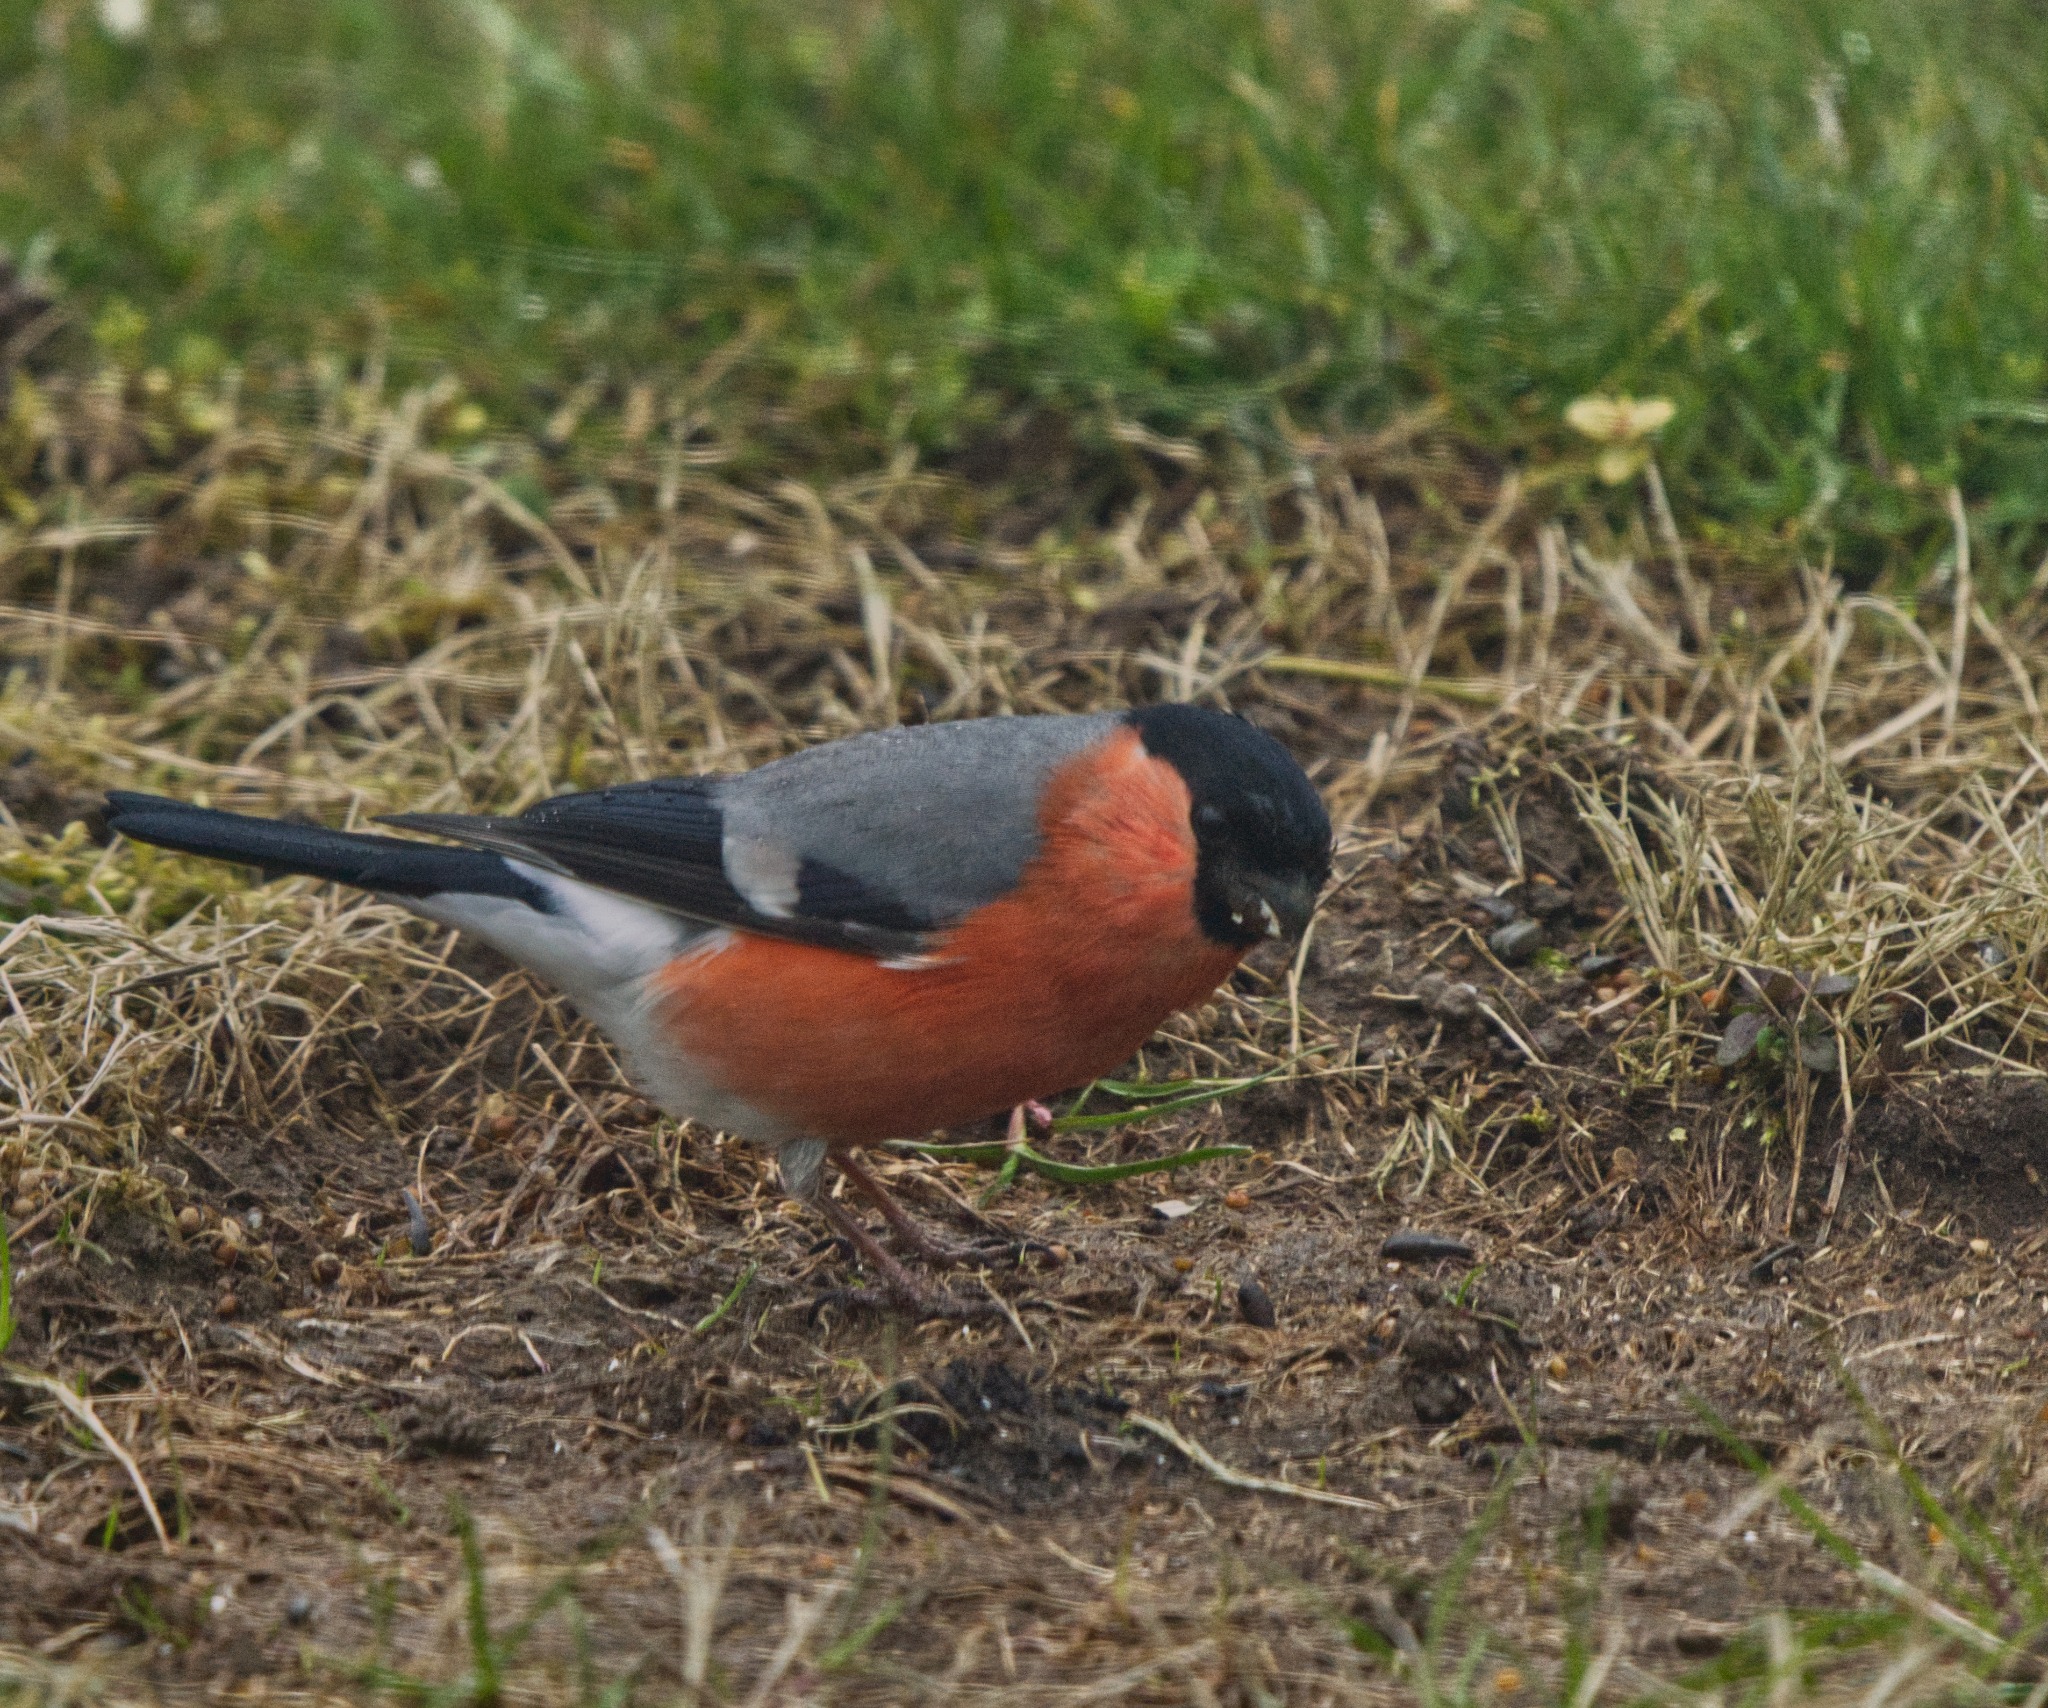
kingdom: Animalia
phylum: Chordata
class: Aves
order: Passeriformes
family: Fringillidae
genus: Pyrrhula
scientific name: Pyrrhula pyrrhula
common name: Dompap
